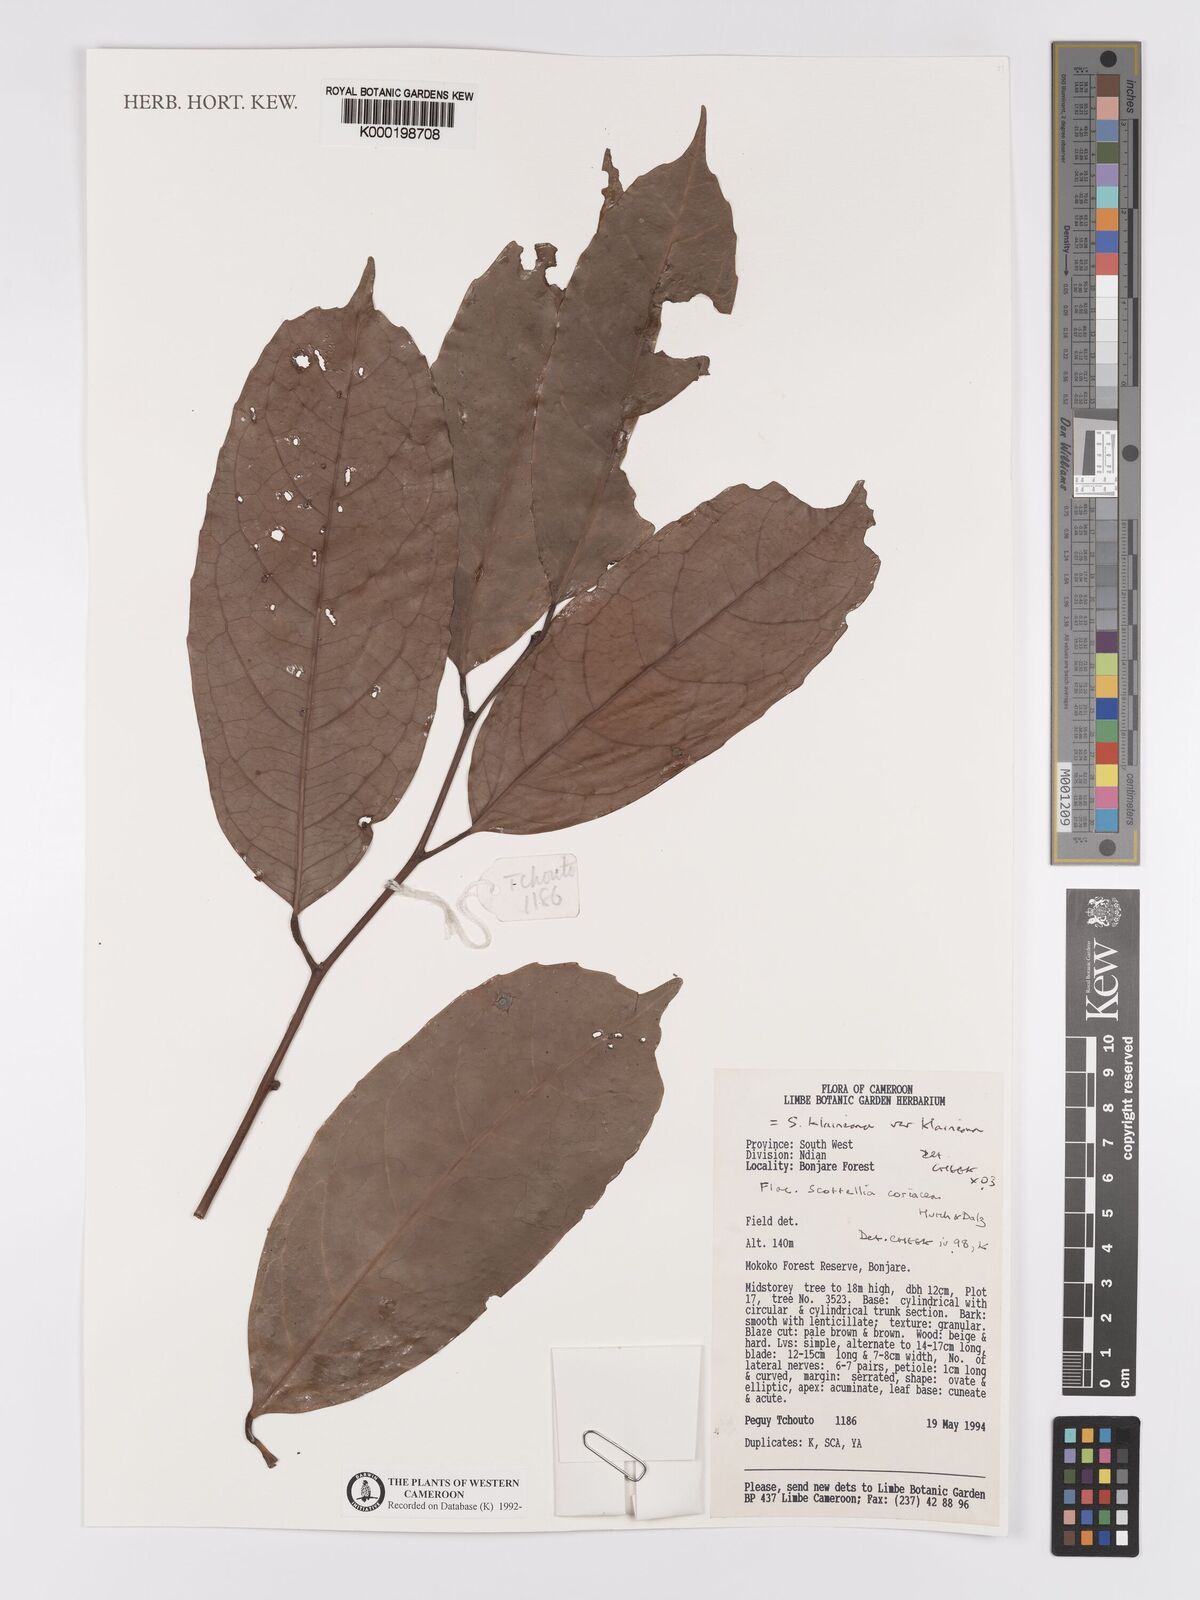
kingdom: Plantae
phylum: Tracheophyta
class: Magnoliopsida
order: Malpighiales
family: Achariaceae
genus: Scottellia
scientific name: Scottellia klaineana
